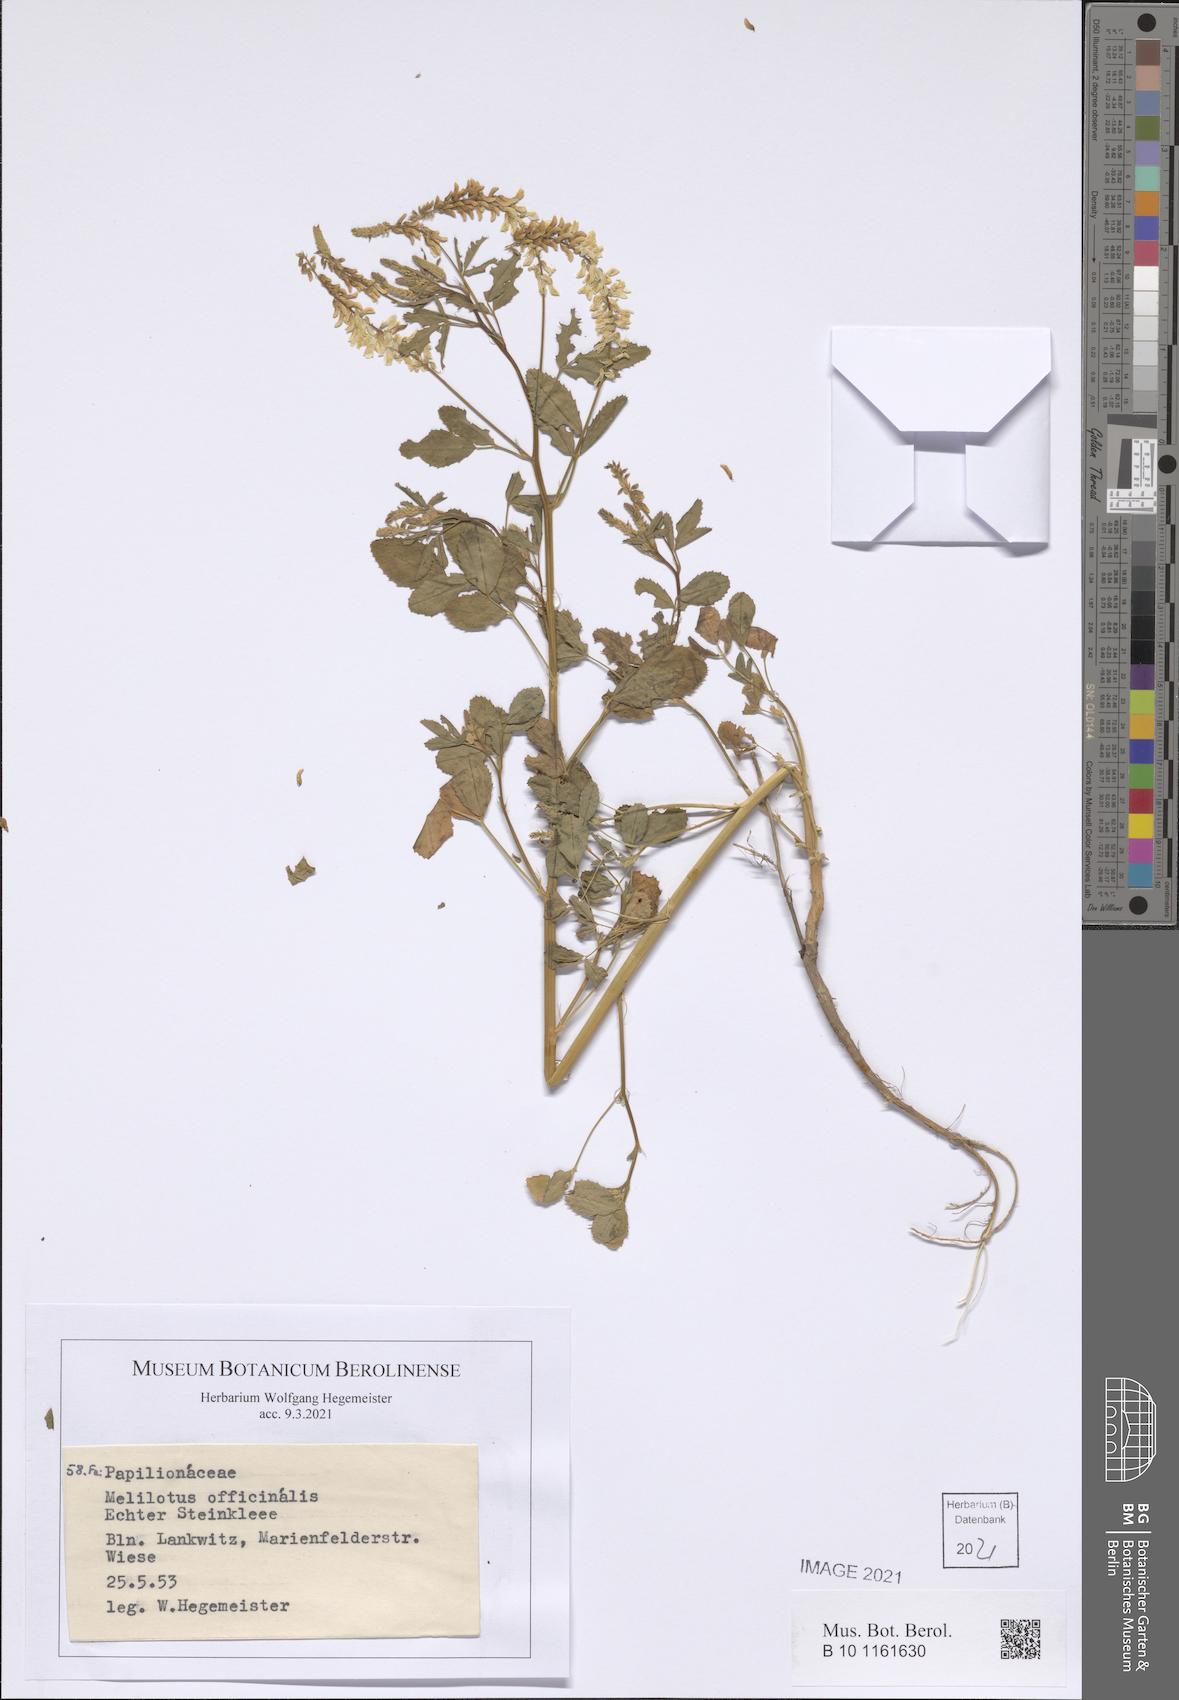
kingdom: Plantae
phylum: Tracheophyta
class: Magnoliopsida
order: Fabales
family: Fabaceae
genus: Melilotus
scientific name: Melilotus officinalis
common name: Sweetclover
